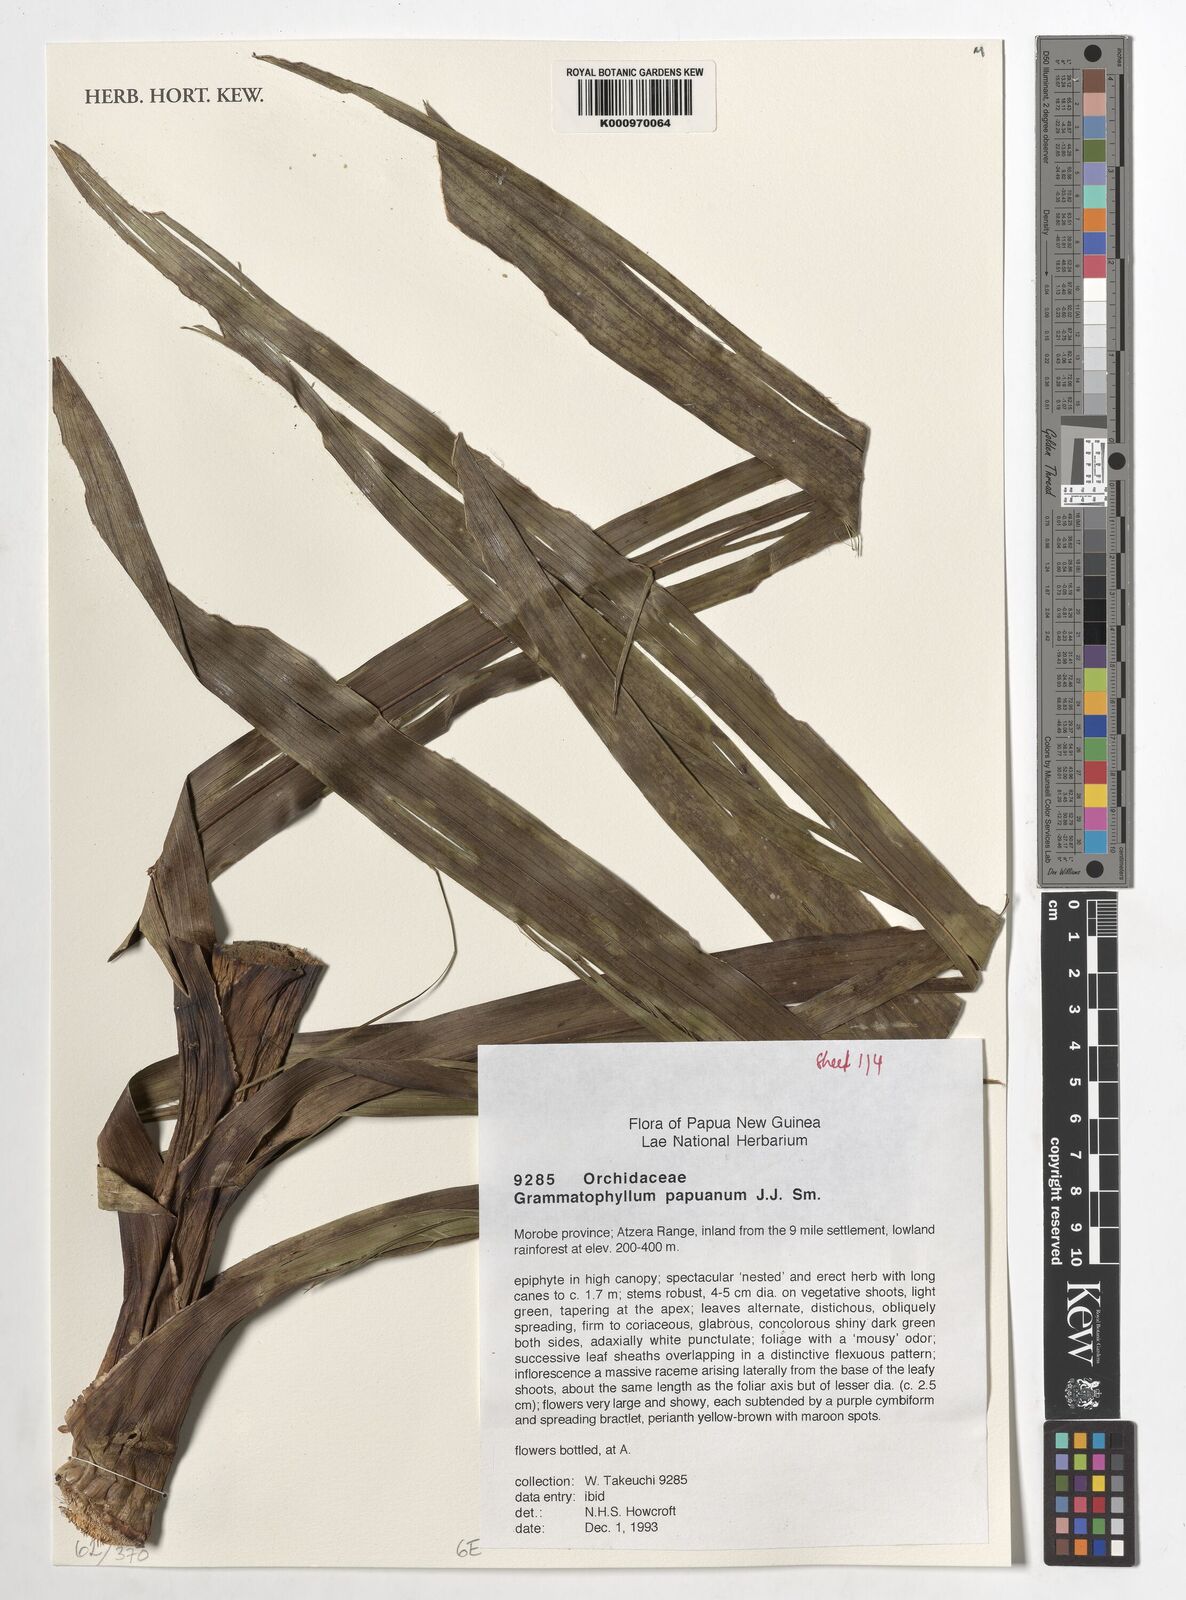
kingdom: Plantae
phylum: Tracheophyta
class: Liliopsida
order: Asparagales
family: Orchidaceae
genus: Grammatophyllum
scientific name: Grammatophyllum pantherinum
